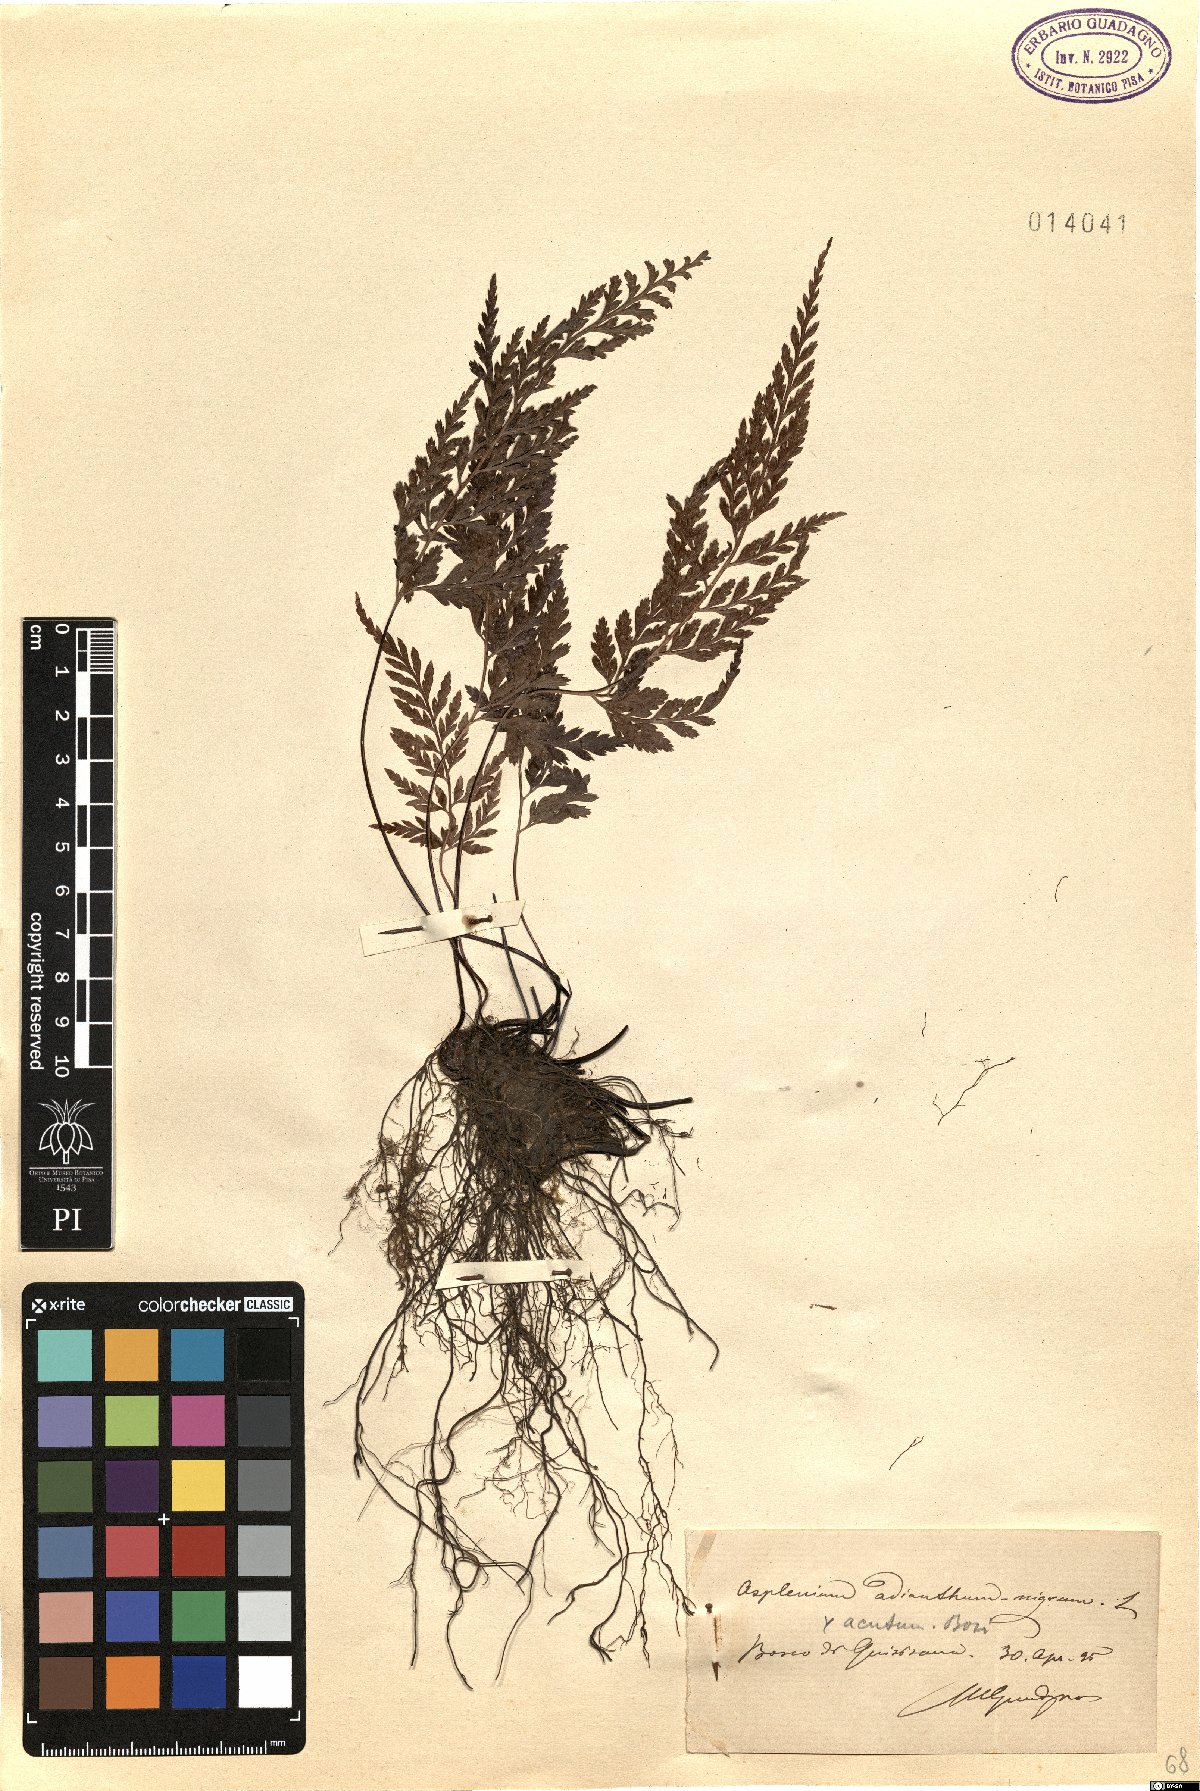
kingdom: Plantae
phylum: Tracheophyta
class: Polypodiopsida
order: Polypodiales
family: Aspleniaceae
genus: Asplenium
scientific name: Asplenium onopteris
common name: Irish spleenwort
